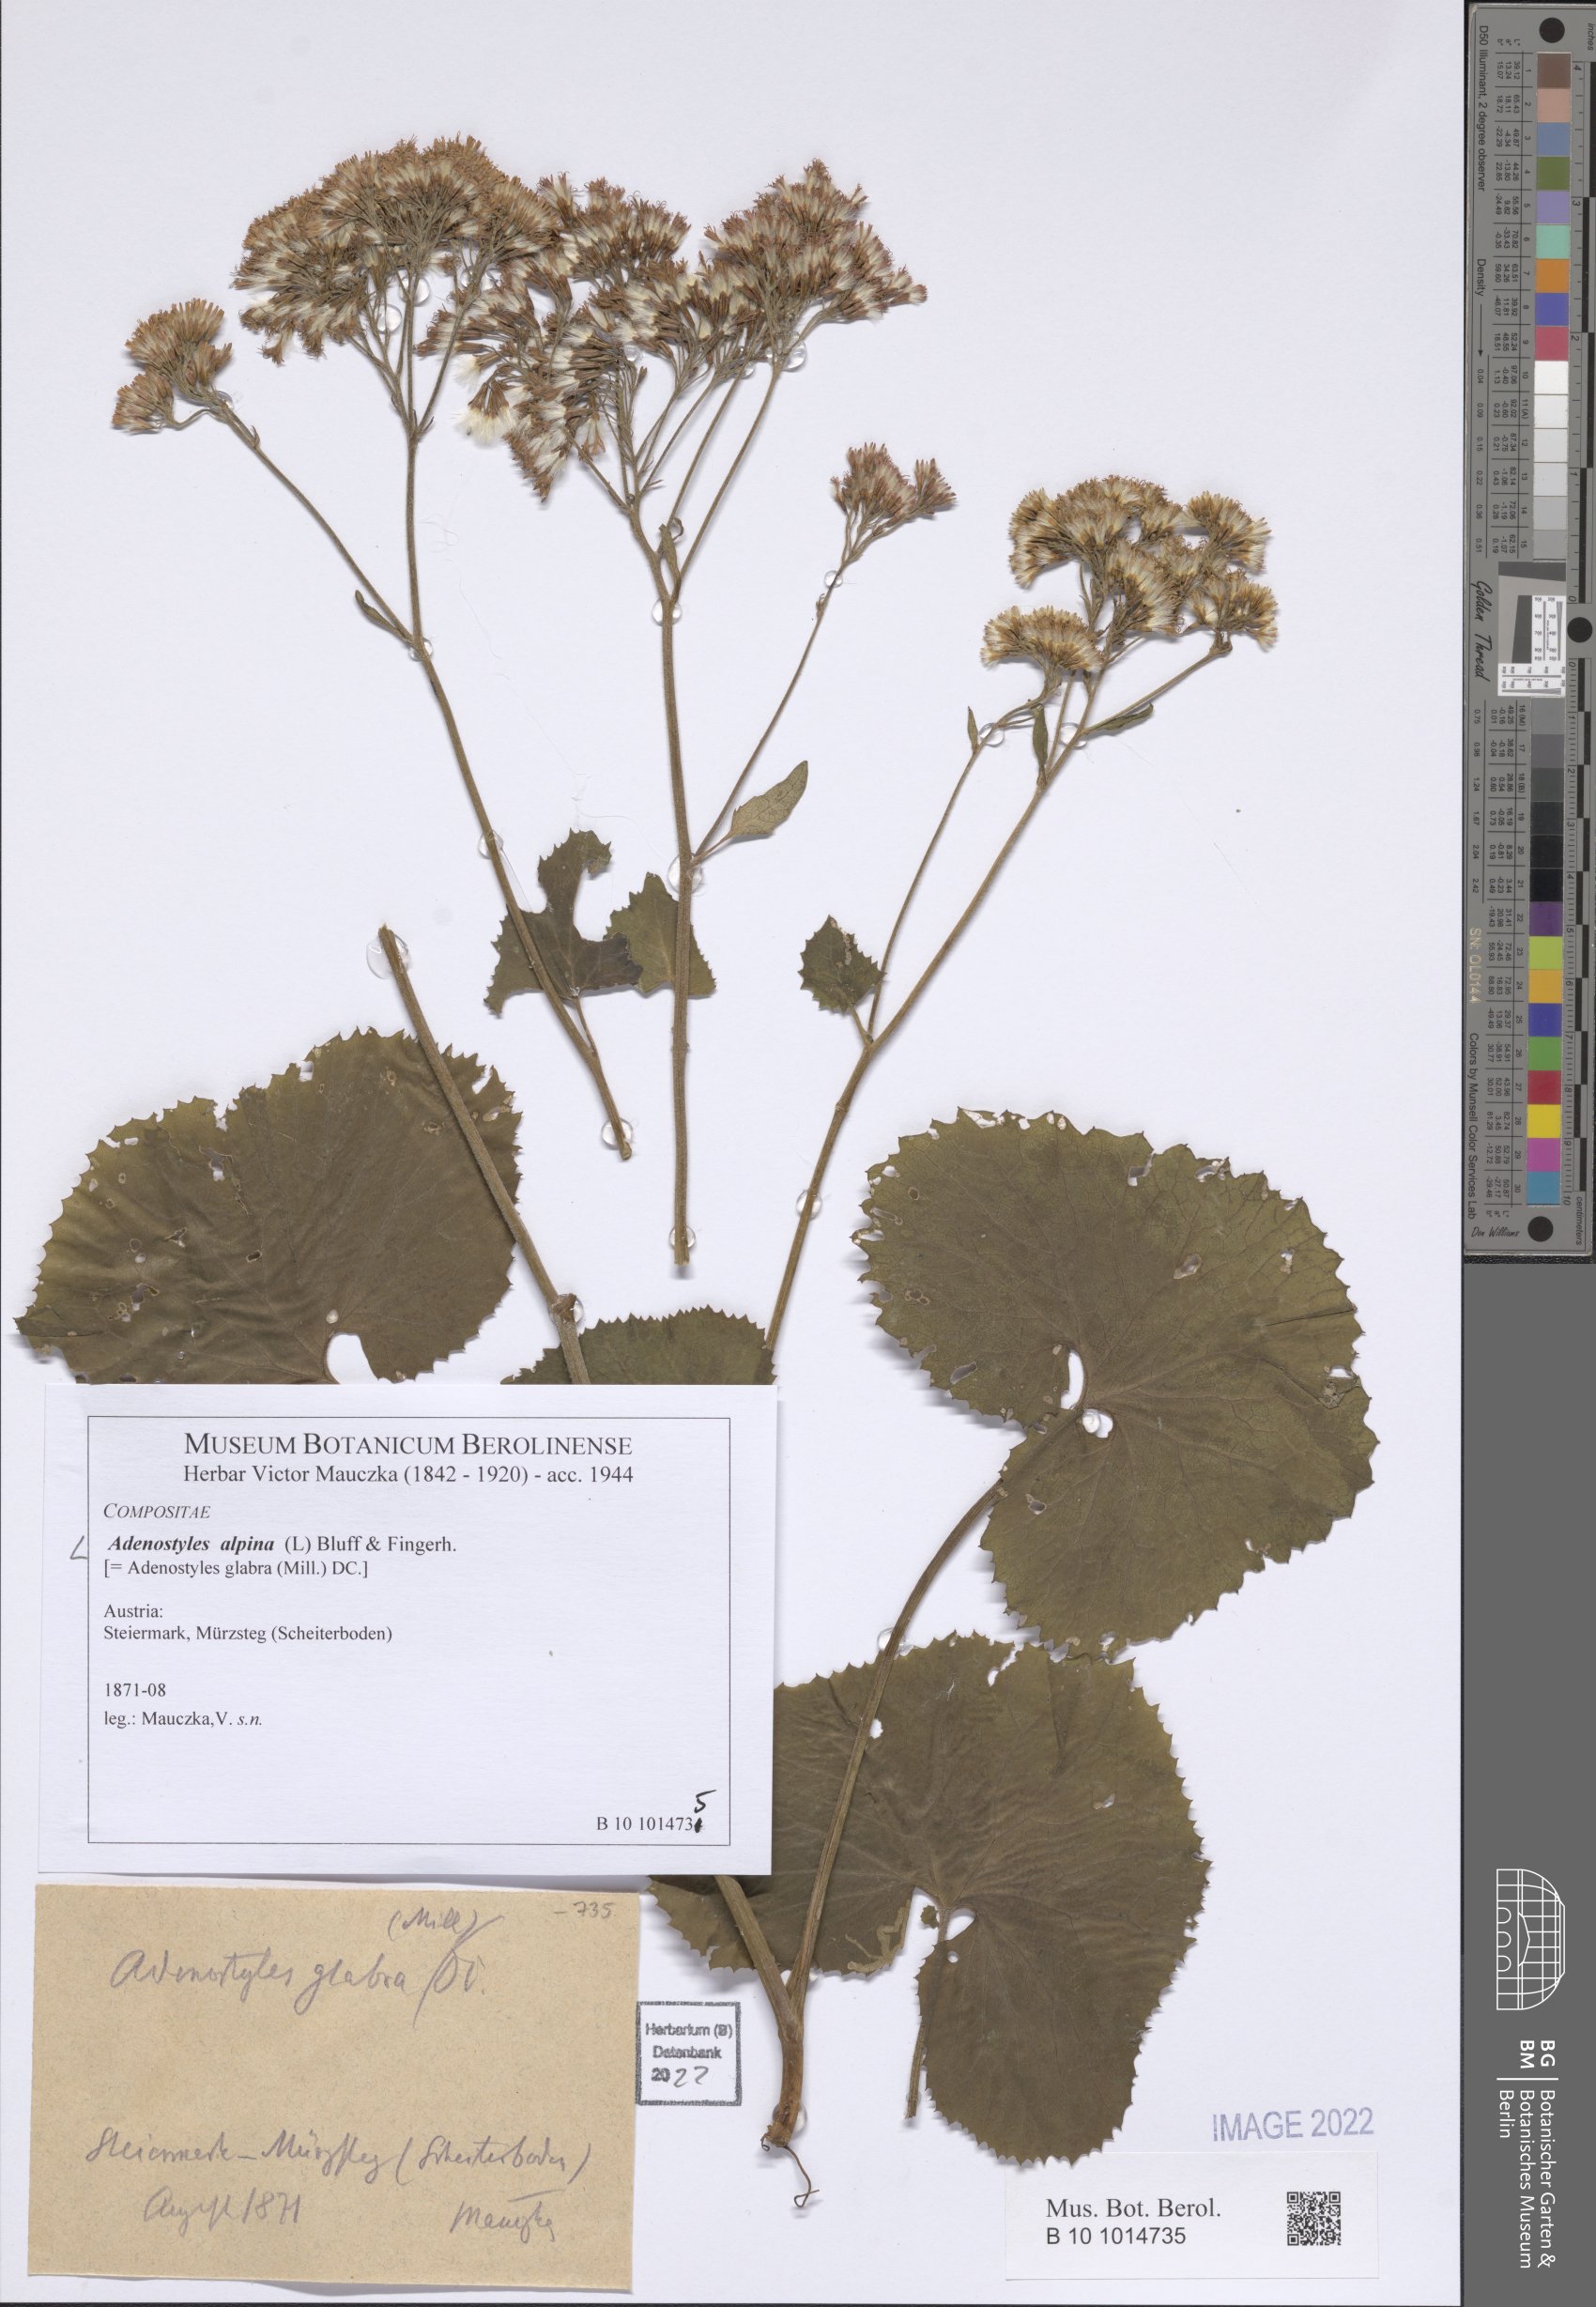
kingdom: Plantae
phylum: Tracheophyta
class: Magnoliopsida
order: Asterales
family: Asteraceae
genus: Adenostyles
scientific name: Adenostyles alpina
